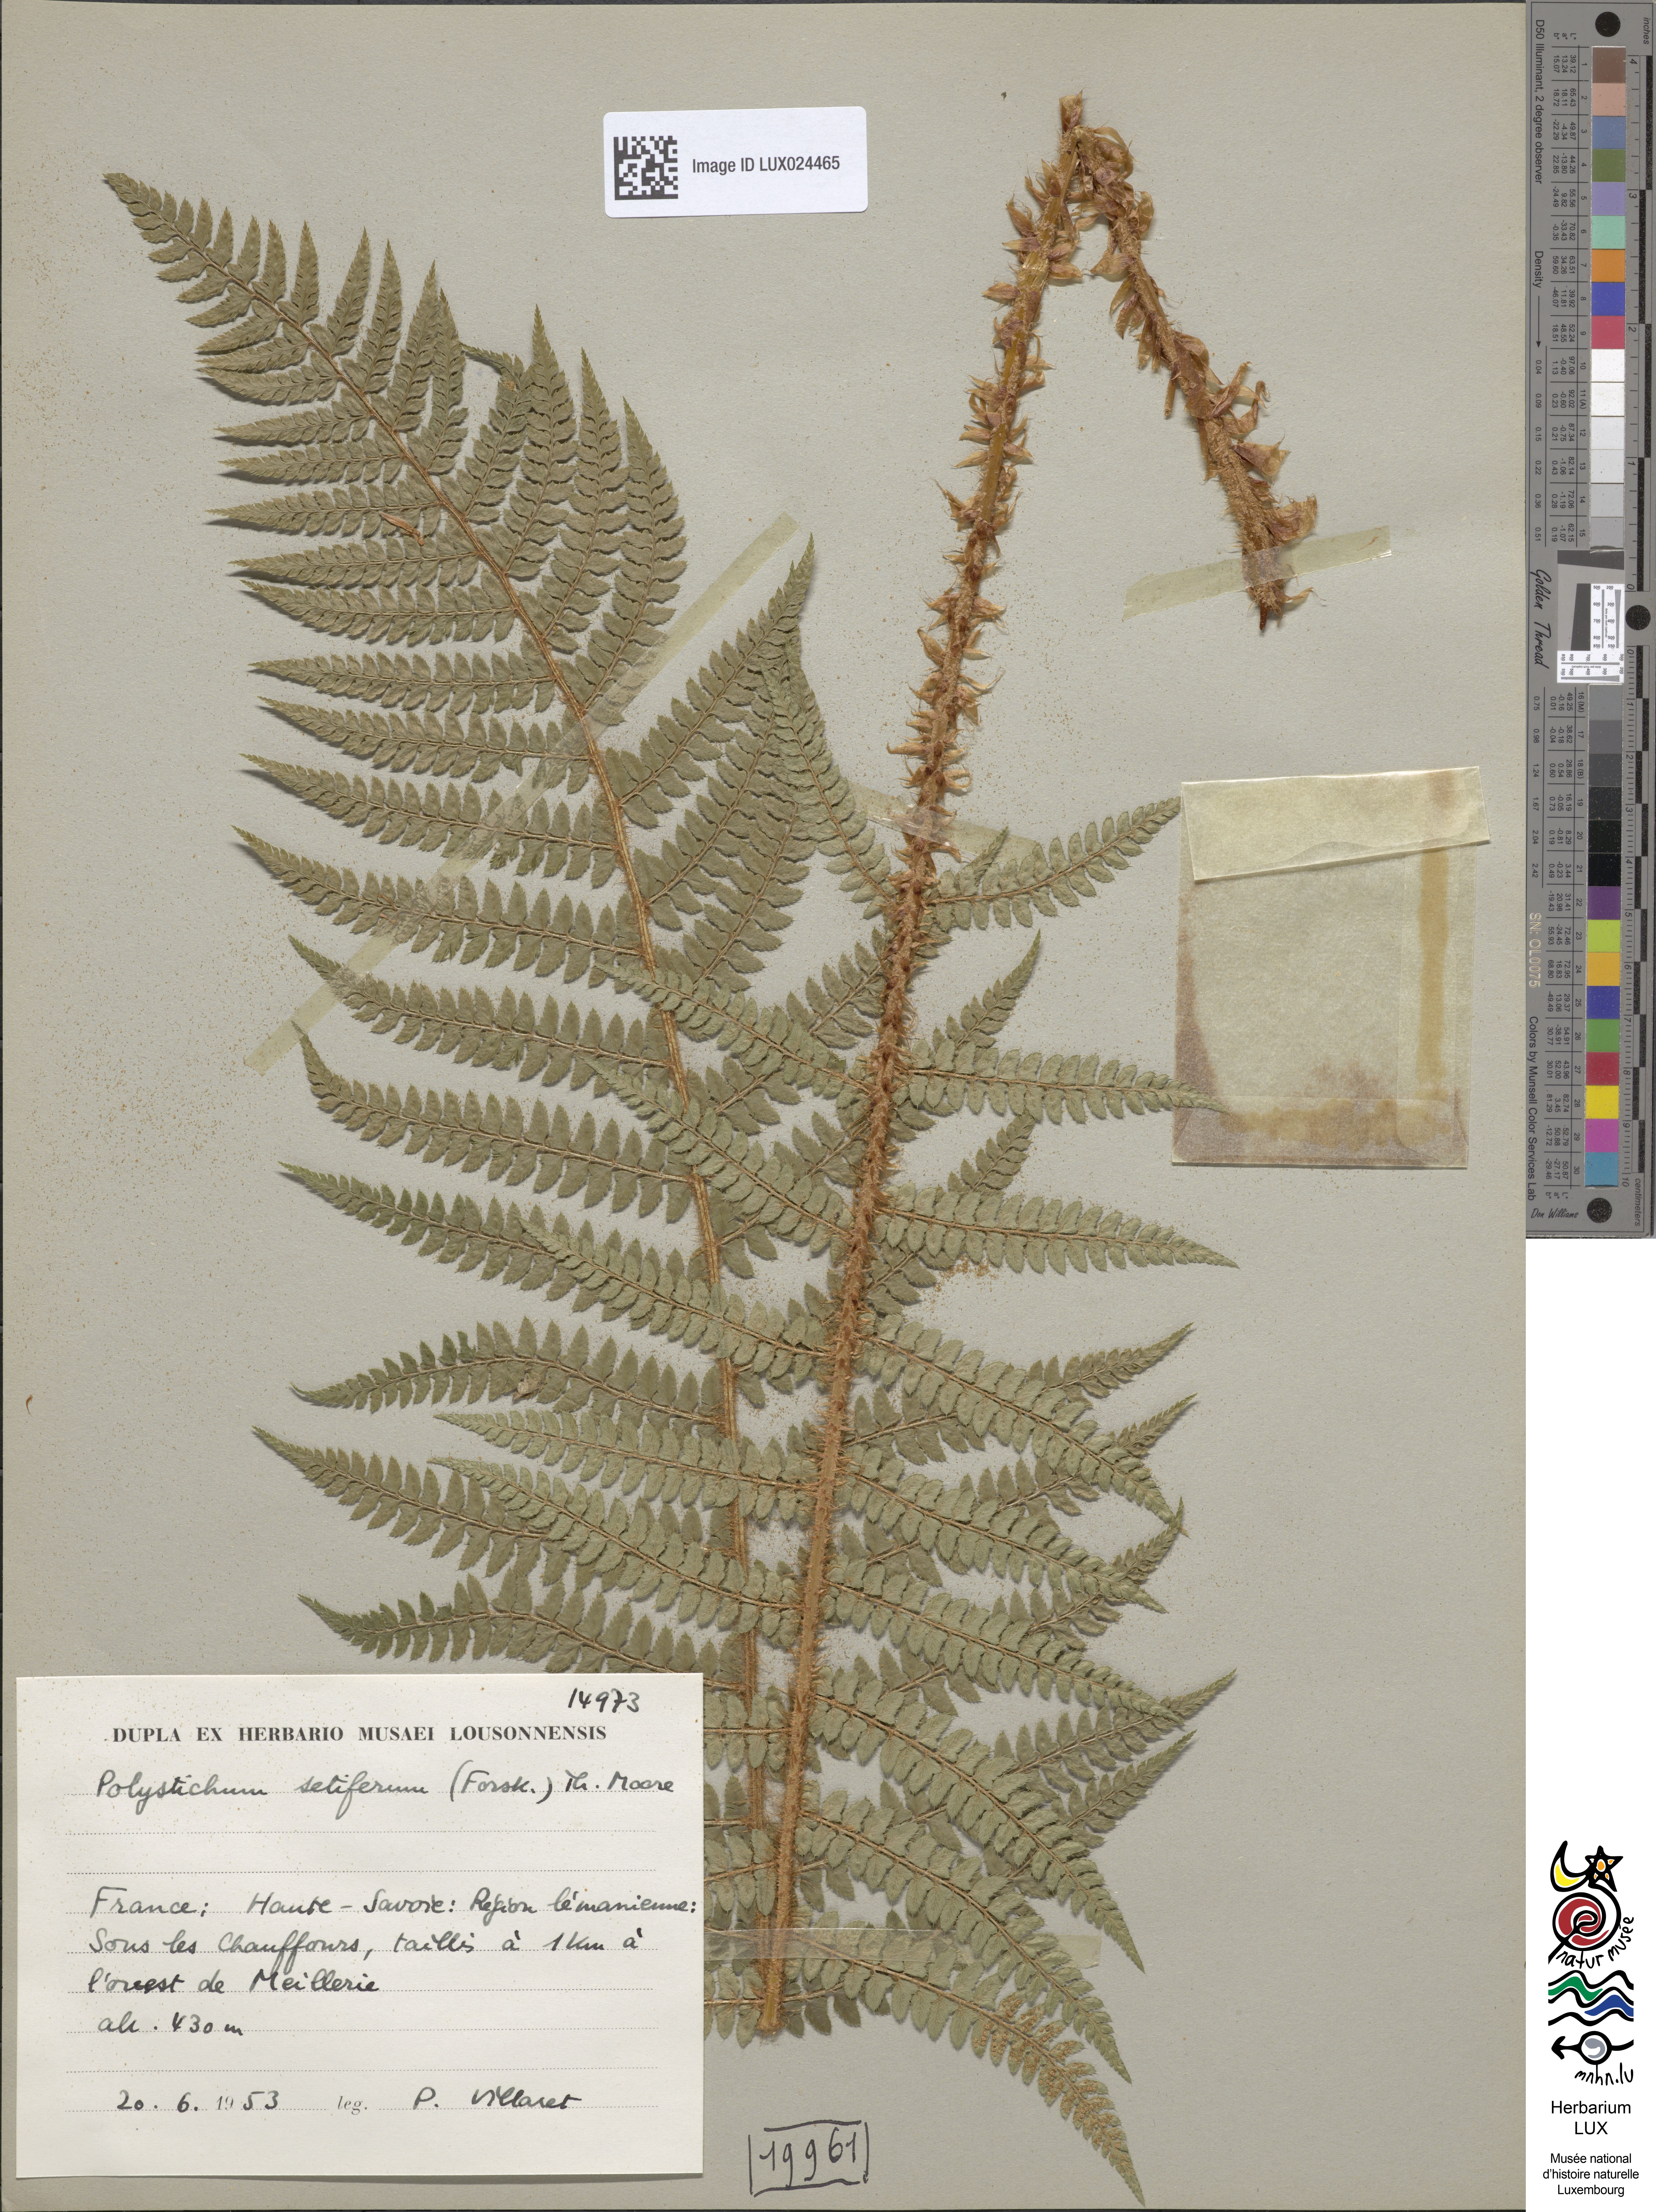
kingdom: Plantae
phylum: Tracheophyta
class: Polypodiopsida
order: Polypodiales
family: Dryopteridaceae
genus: Polystichum
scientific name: Polystichum setiferum
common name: Soft shield-fern
